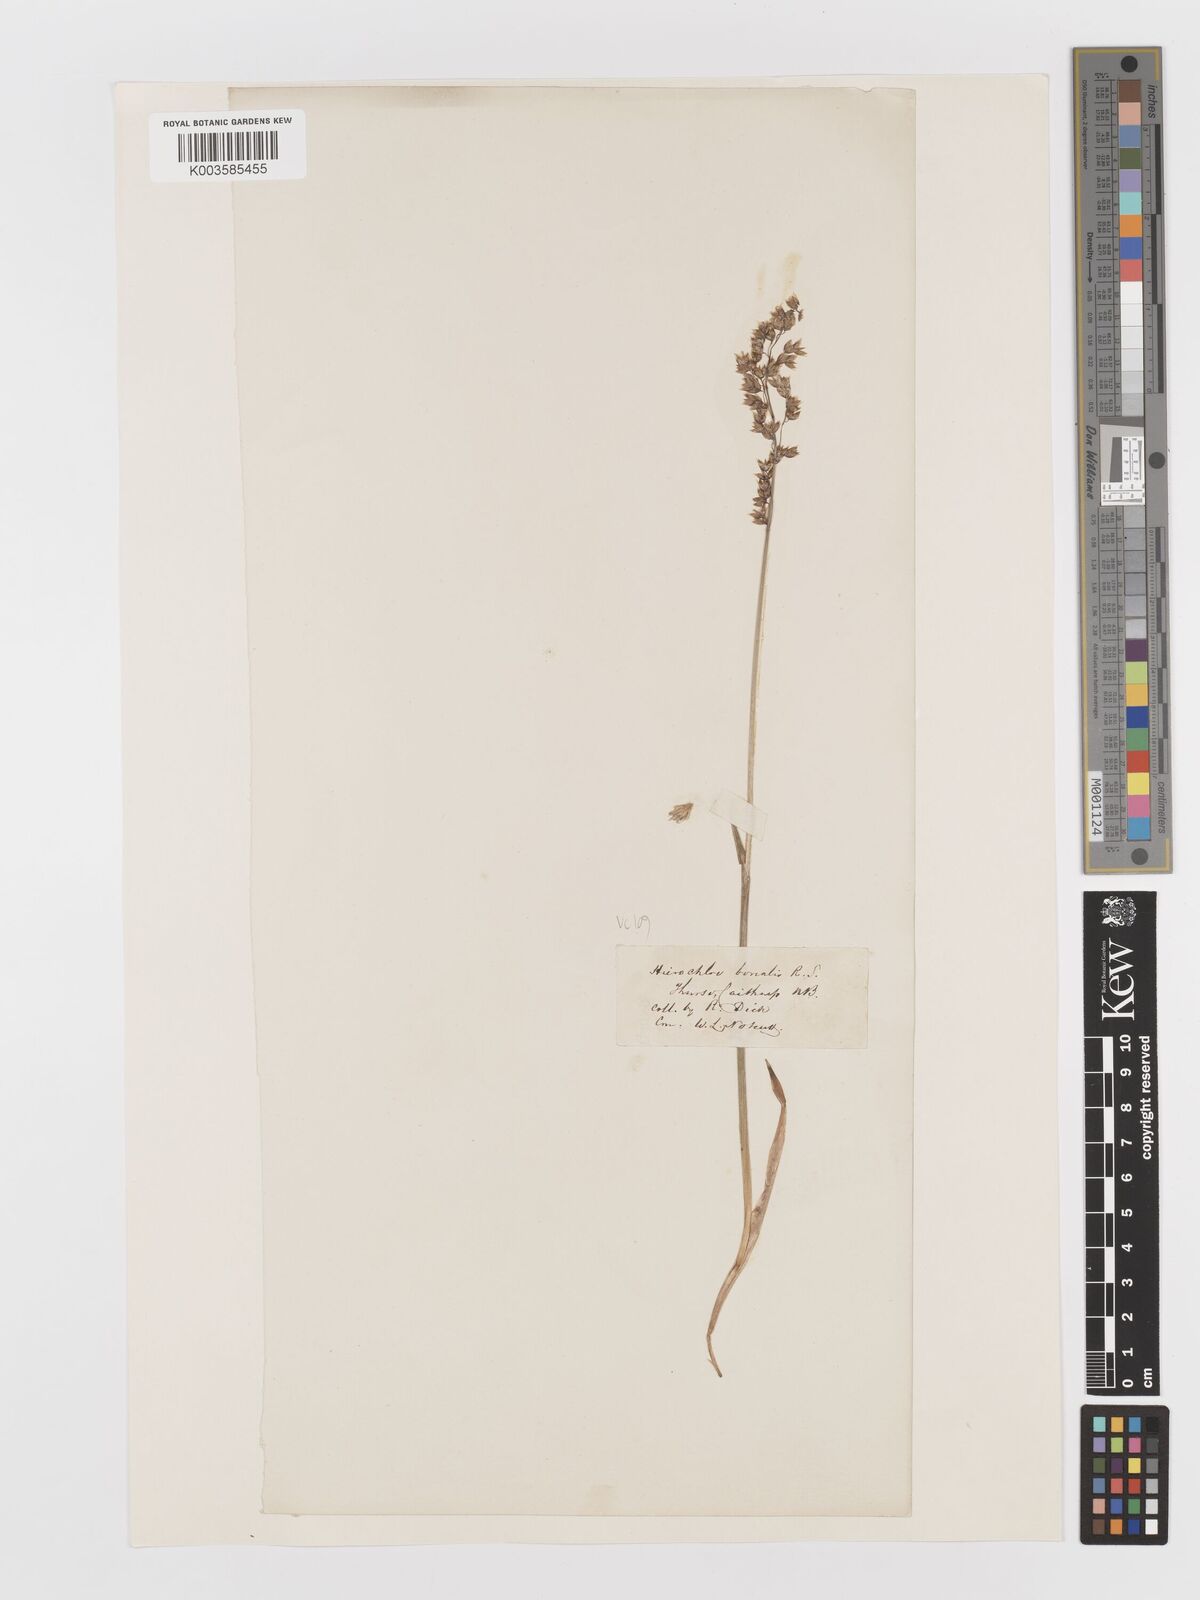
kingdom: Plantae
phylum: Tracheophyta
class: Liliopsida
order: Poales
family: Poaceae
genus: Anthoxanthum
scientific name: Anthoxanthum nitens
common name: Holy grass
